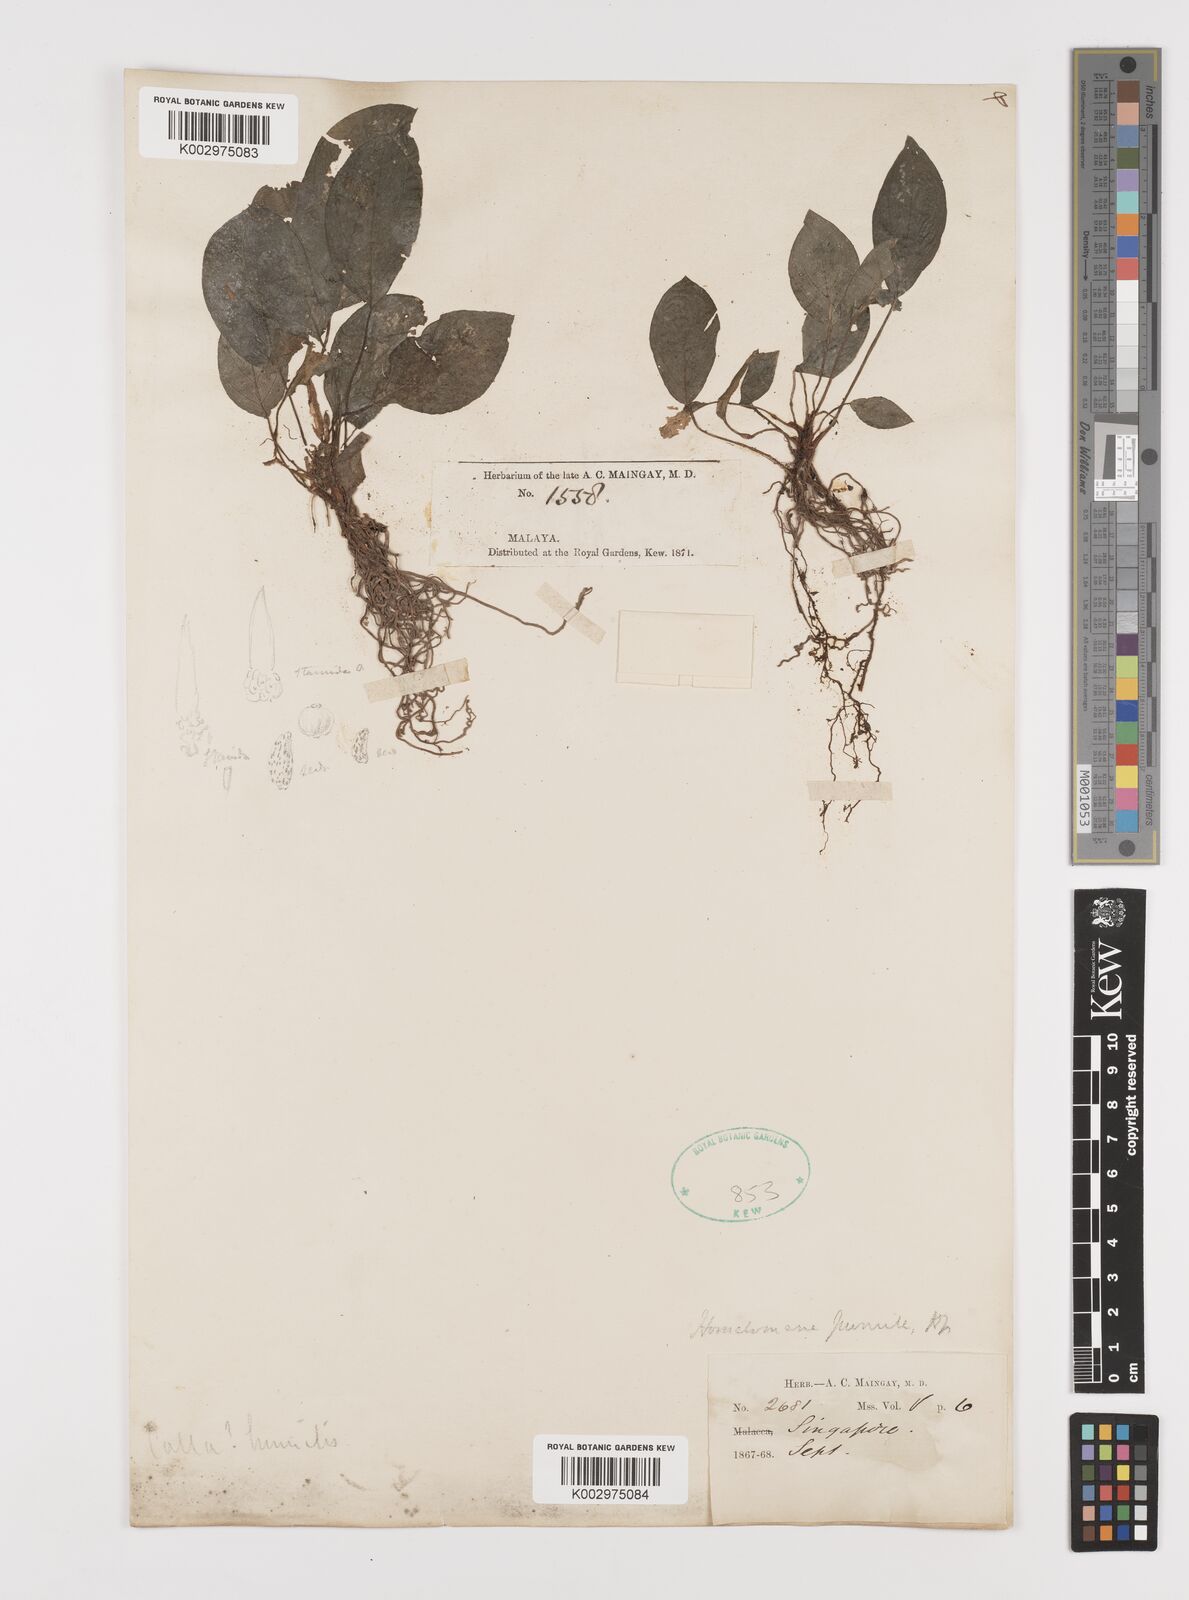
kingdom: Plantae
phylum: Tracheophyta
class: Liliopsida
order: Alismatales
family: Araceae
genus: Homalomena
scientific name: Homalomena humilis
